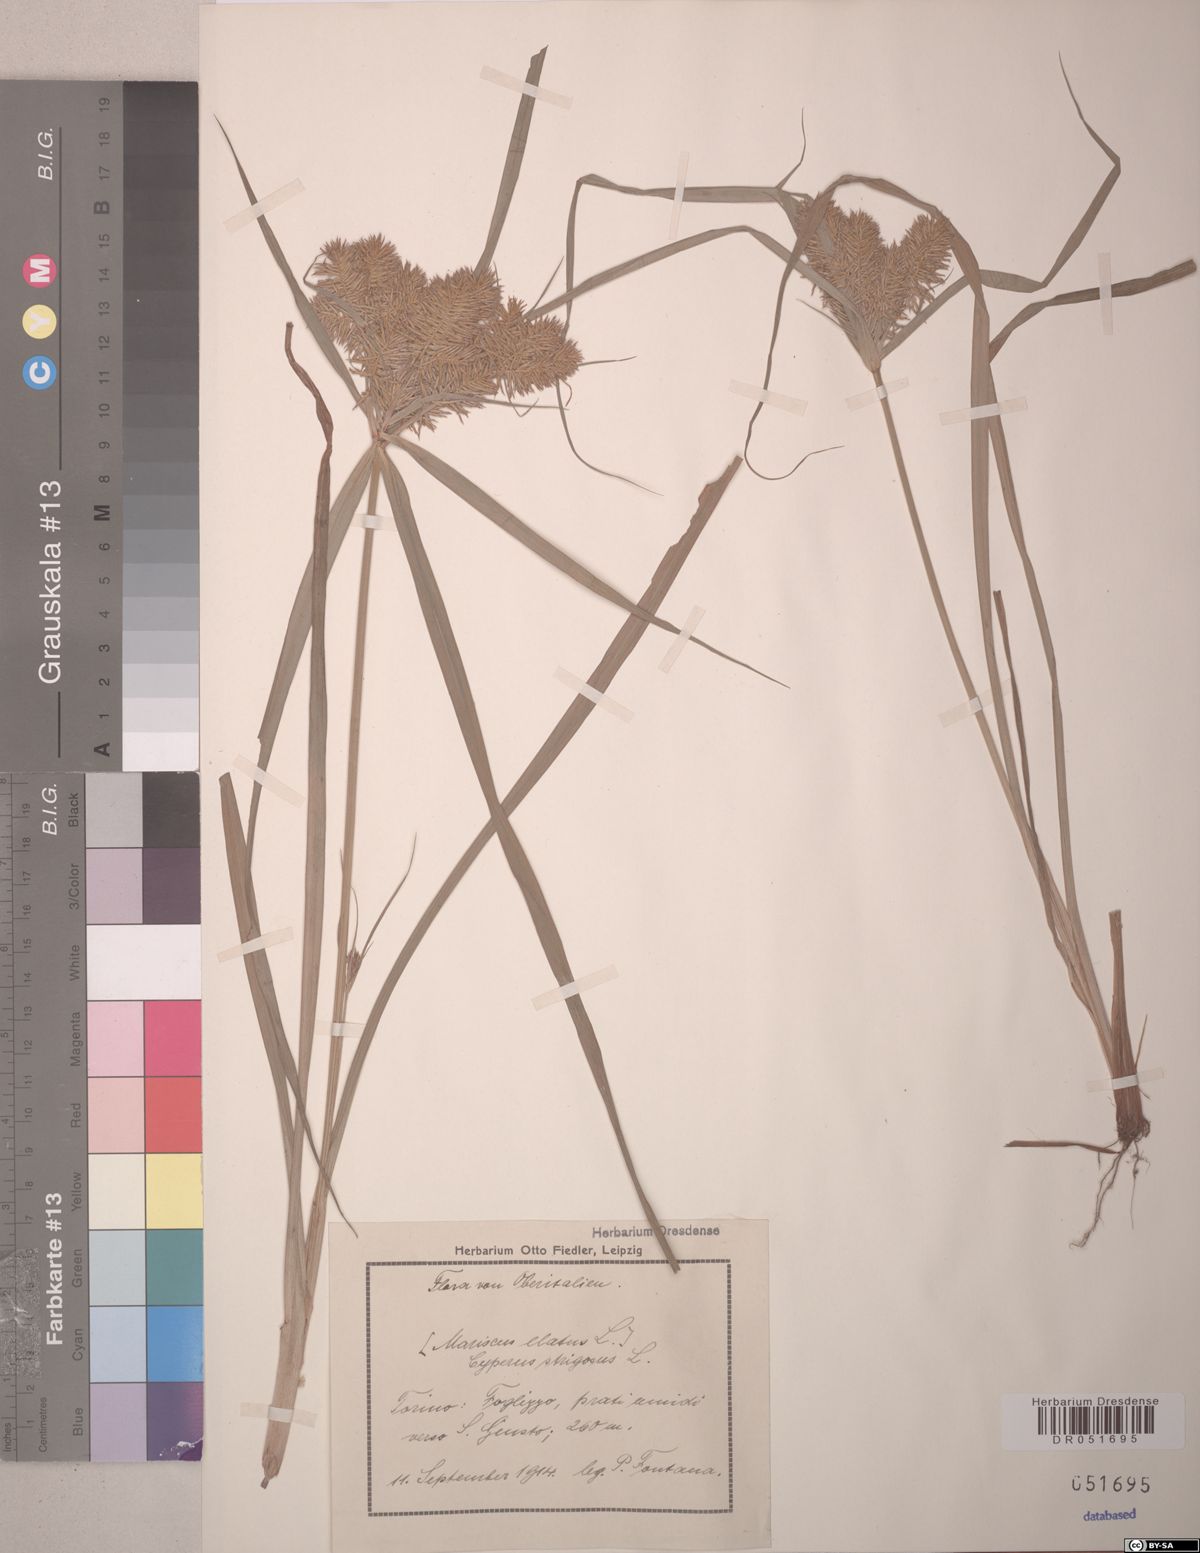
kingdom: Plantae
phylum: Tracheophyta
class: Liliopsida
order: Poales
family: Cyperaceae
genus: Cyperus
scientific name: Cyperus strigosus
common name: False nutsedge
